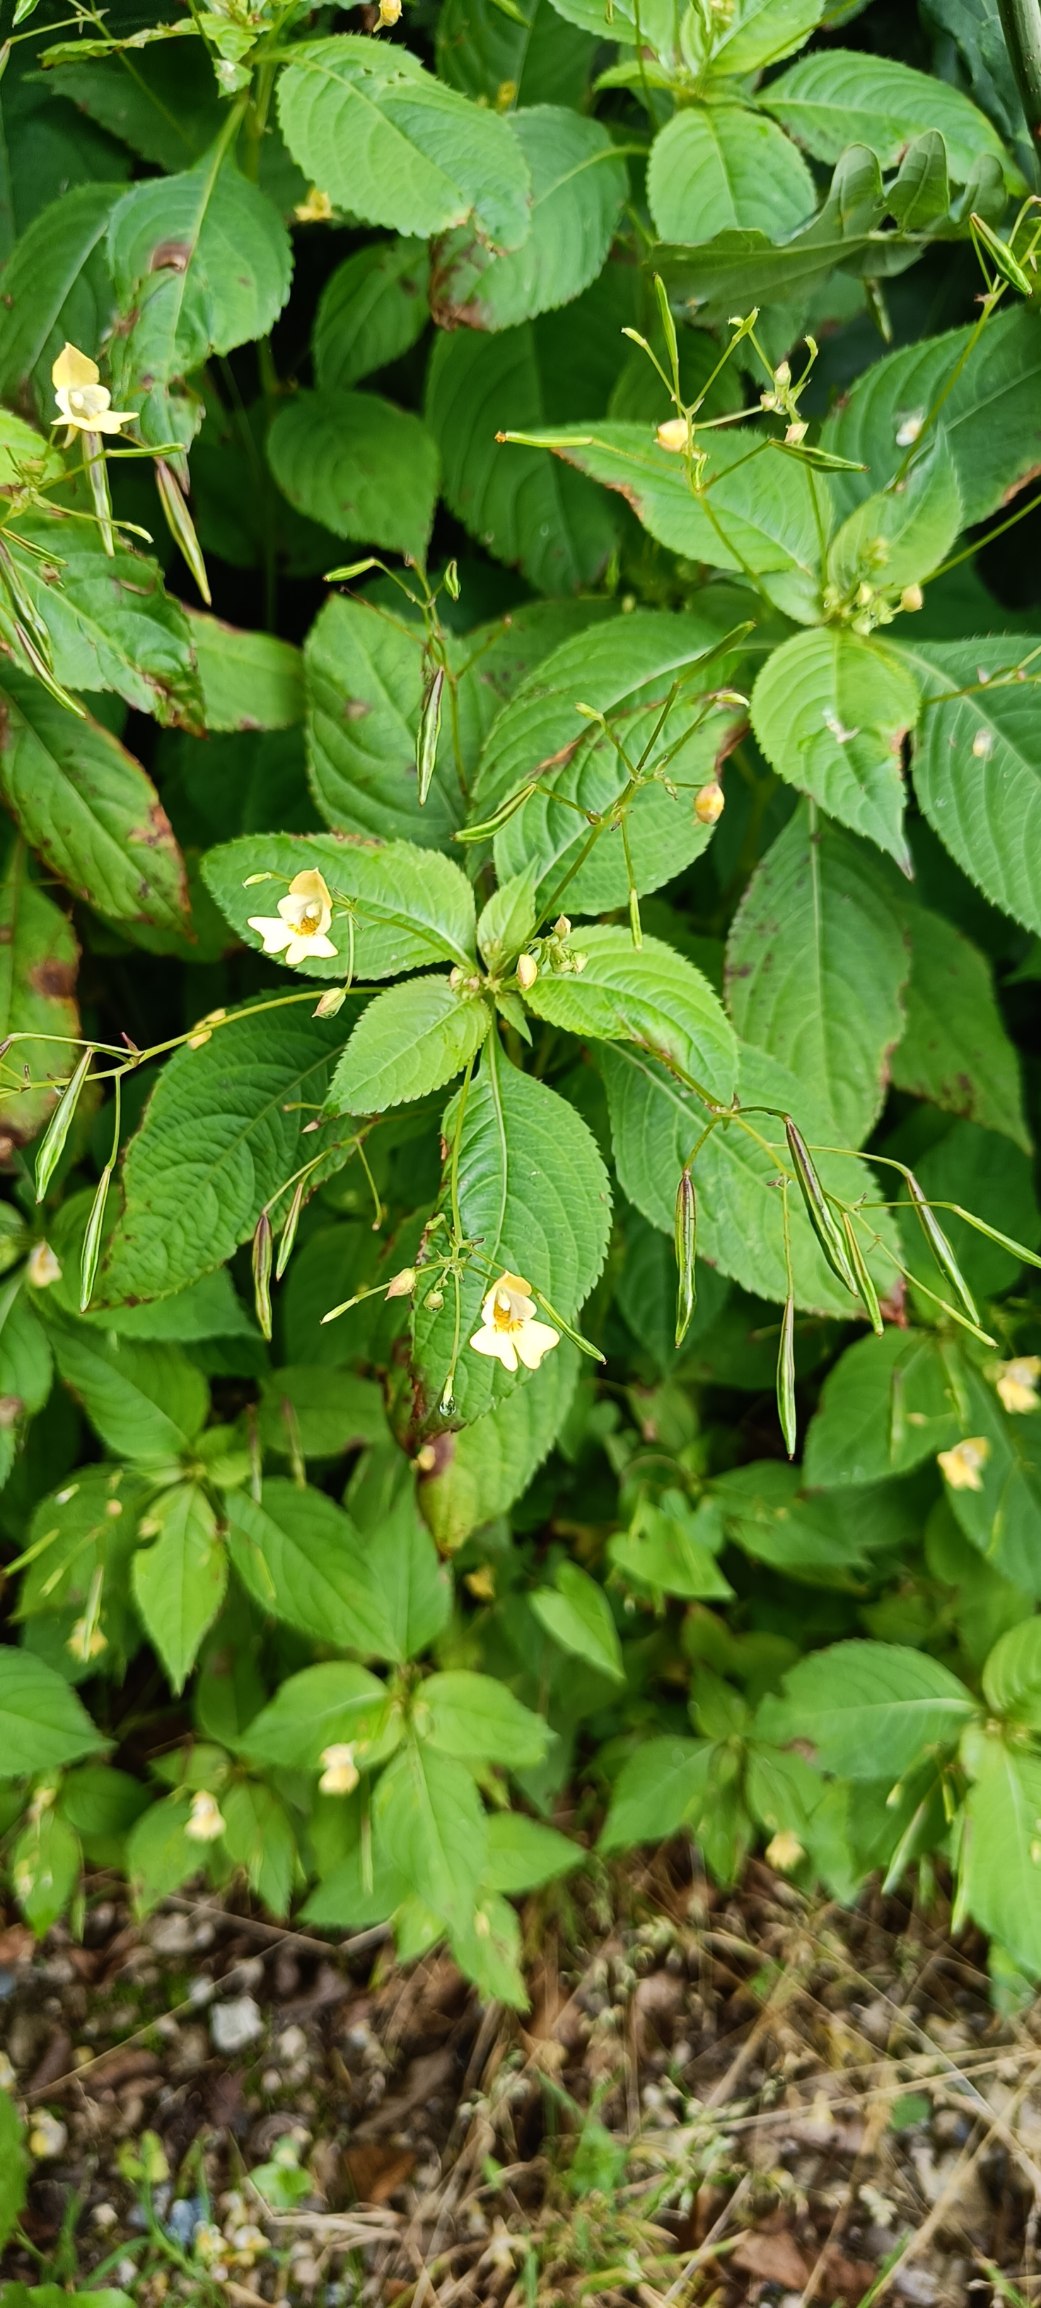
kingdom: Plantae
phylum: Tracheophyta
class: Magnoliopsida
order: Ericales
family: Balsaminaceae
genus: Impatiens
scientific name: Impatiens parviflora
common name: Småblomstret balsamin
